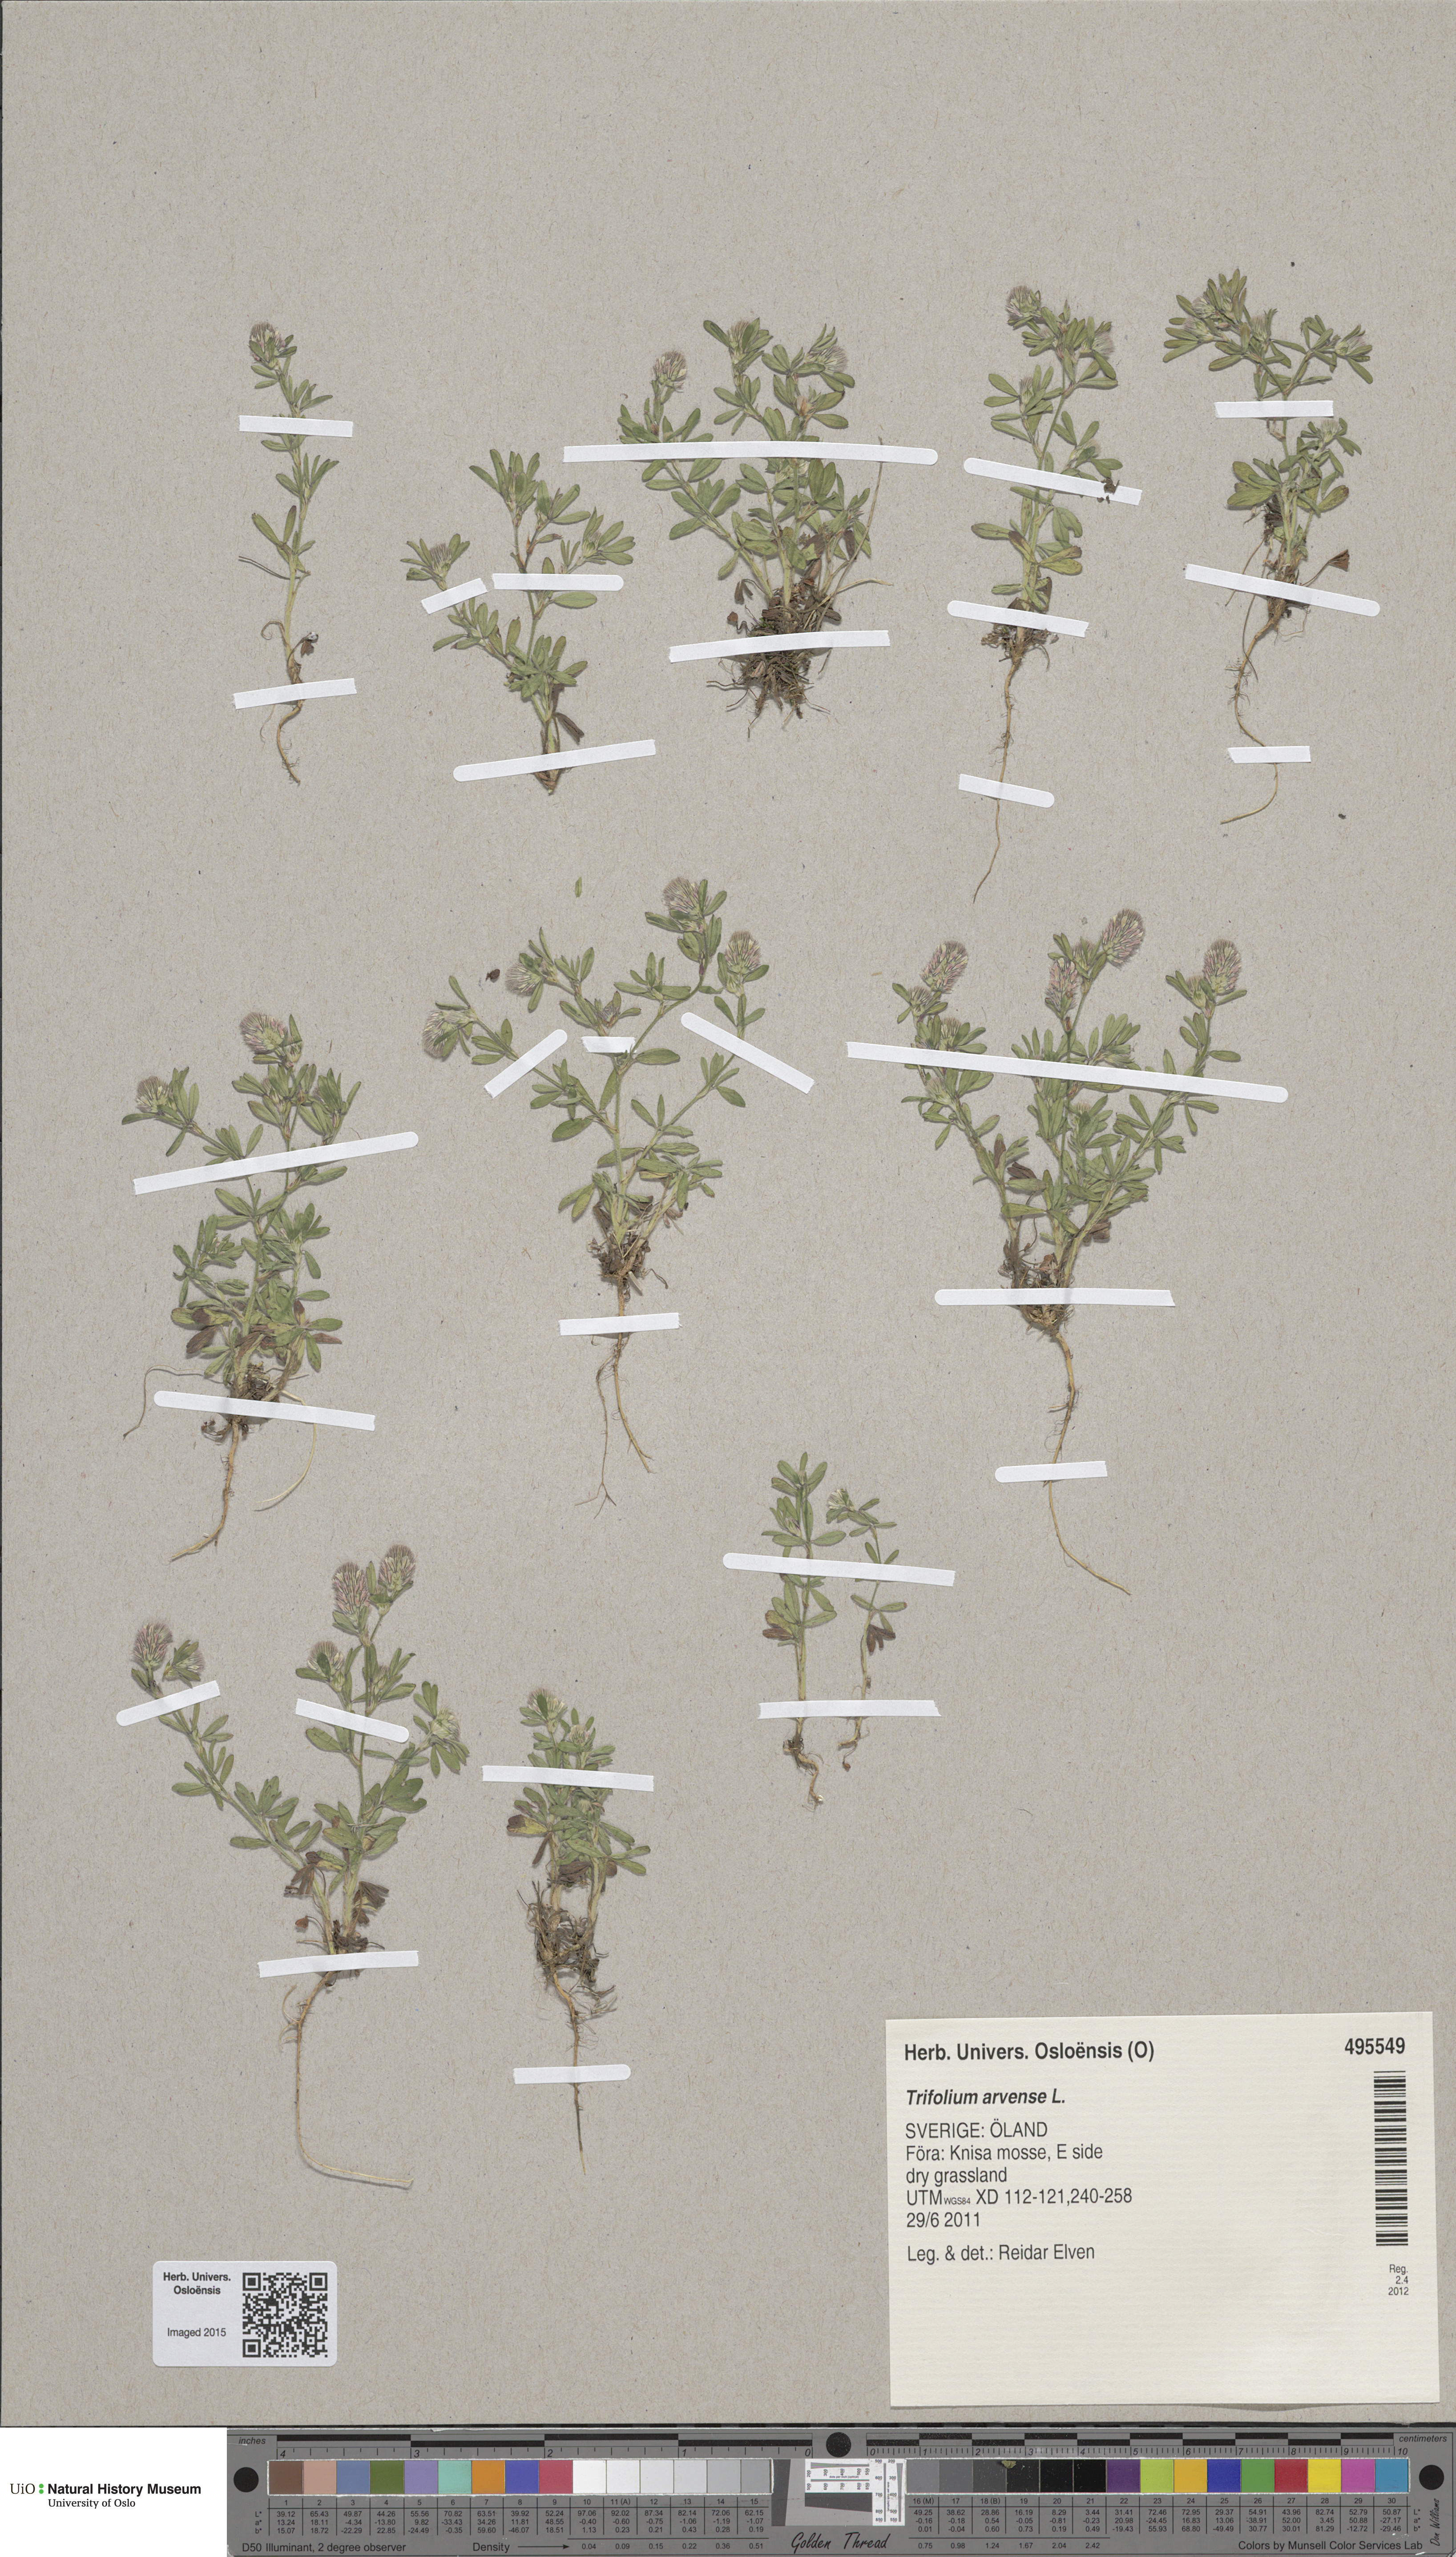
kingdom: Plantae
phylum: Tracheophyta
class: Magnoliopsida
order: Fabales
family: Fabaceae
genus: Trifolium
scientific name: Trifolium arvense
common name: Hare's-foot clover
